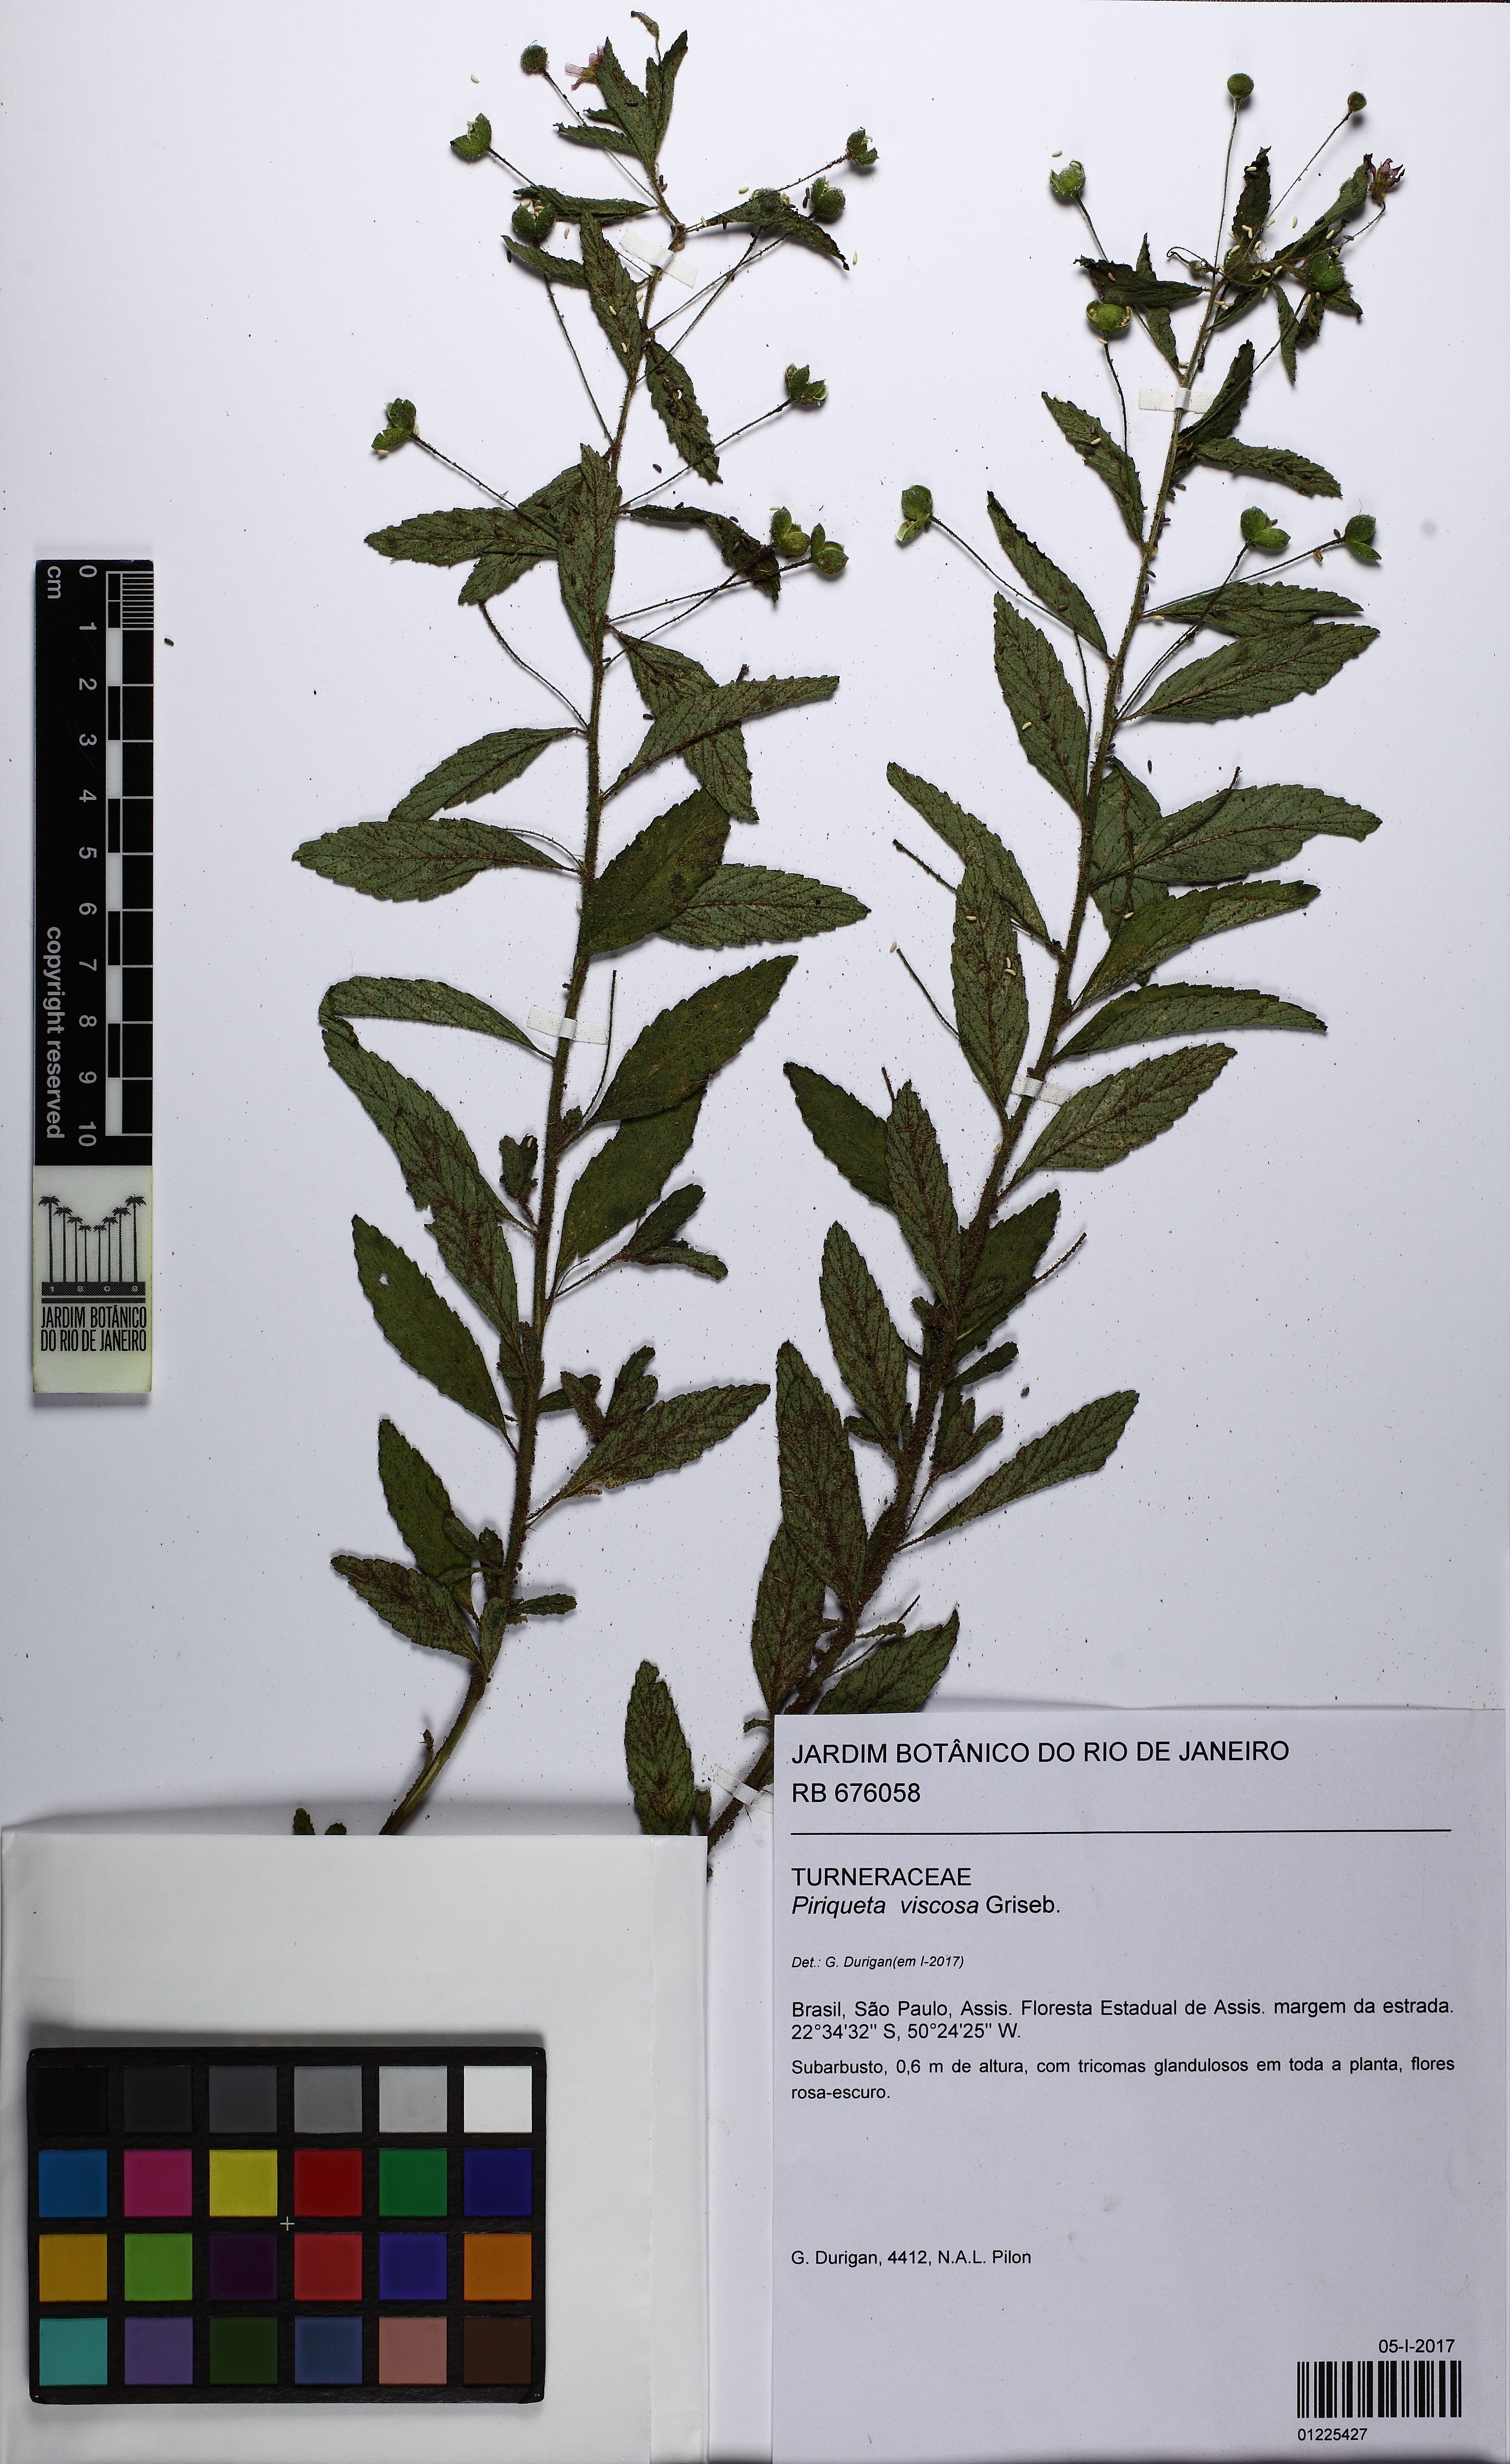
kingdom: Plantae
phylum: Tracheophyta
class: Magnoliopsida
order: Malpighiales
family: Turneraceae
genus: Piriqueta
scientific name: Piriqueta viscosa
